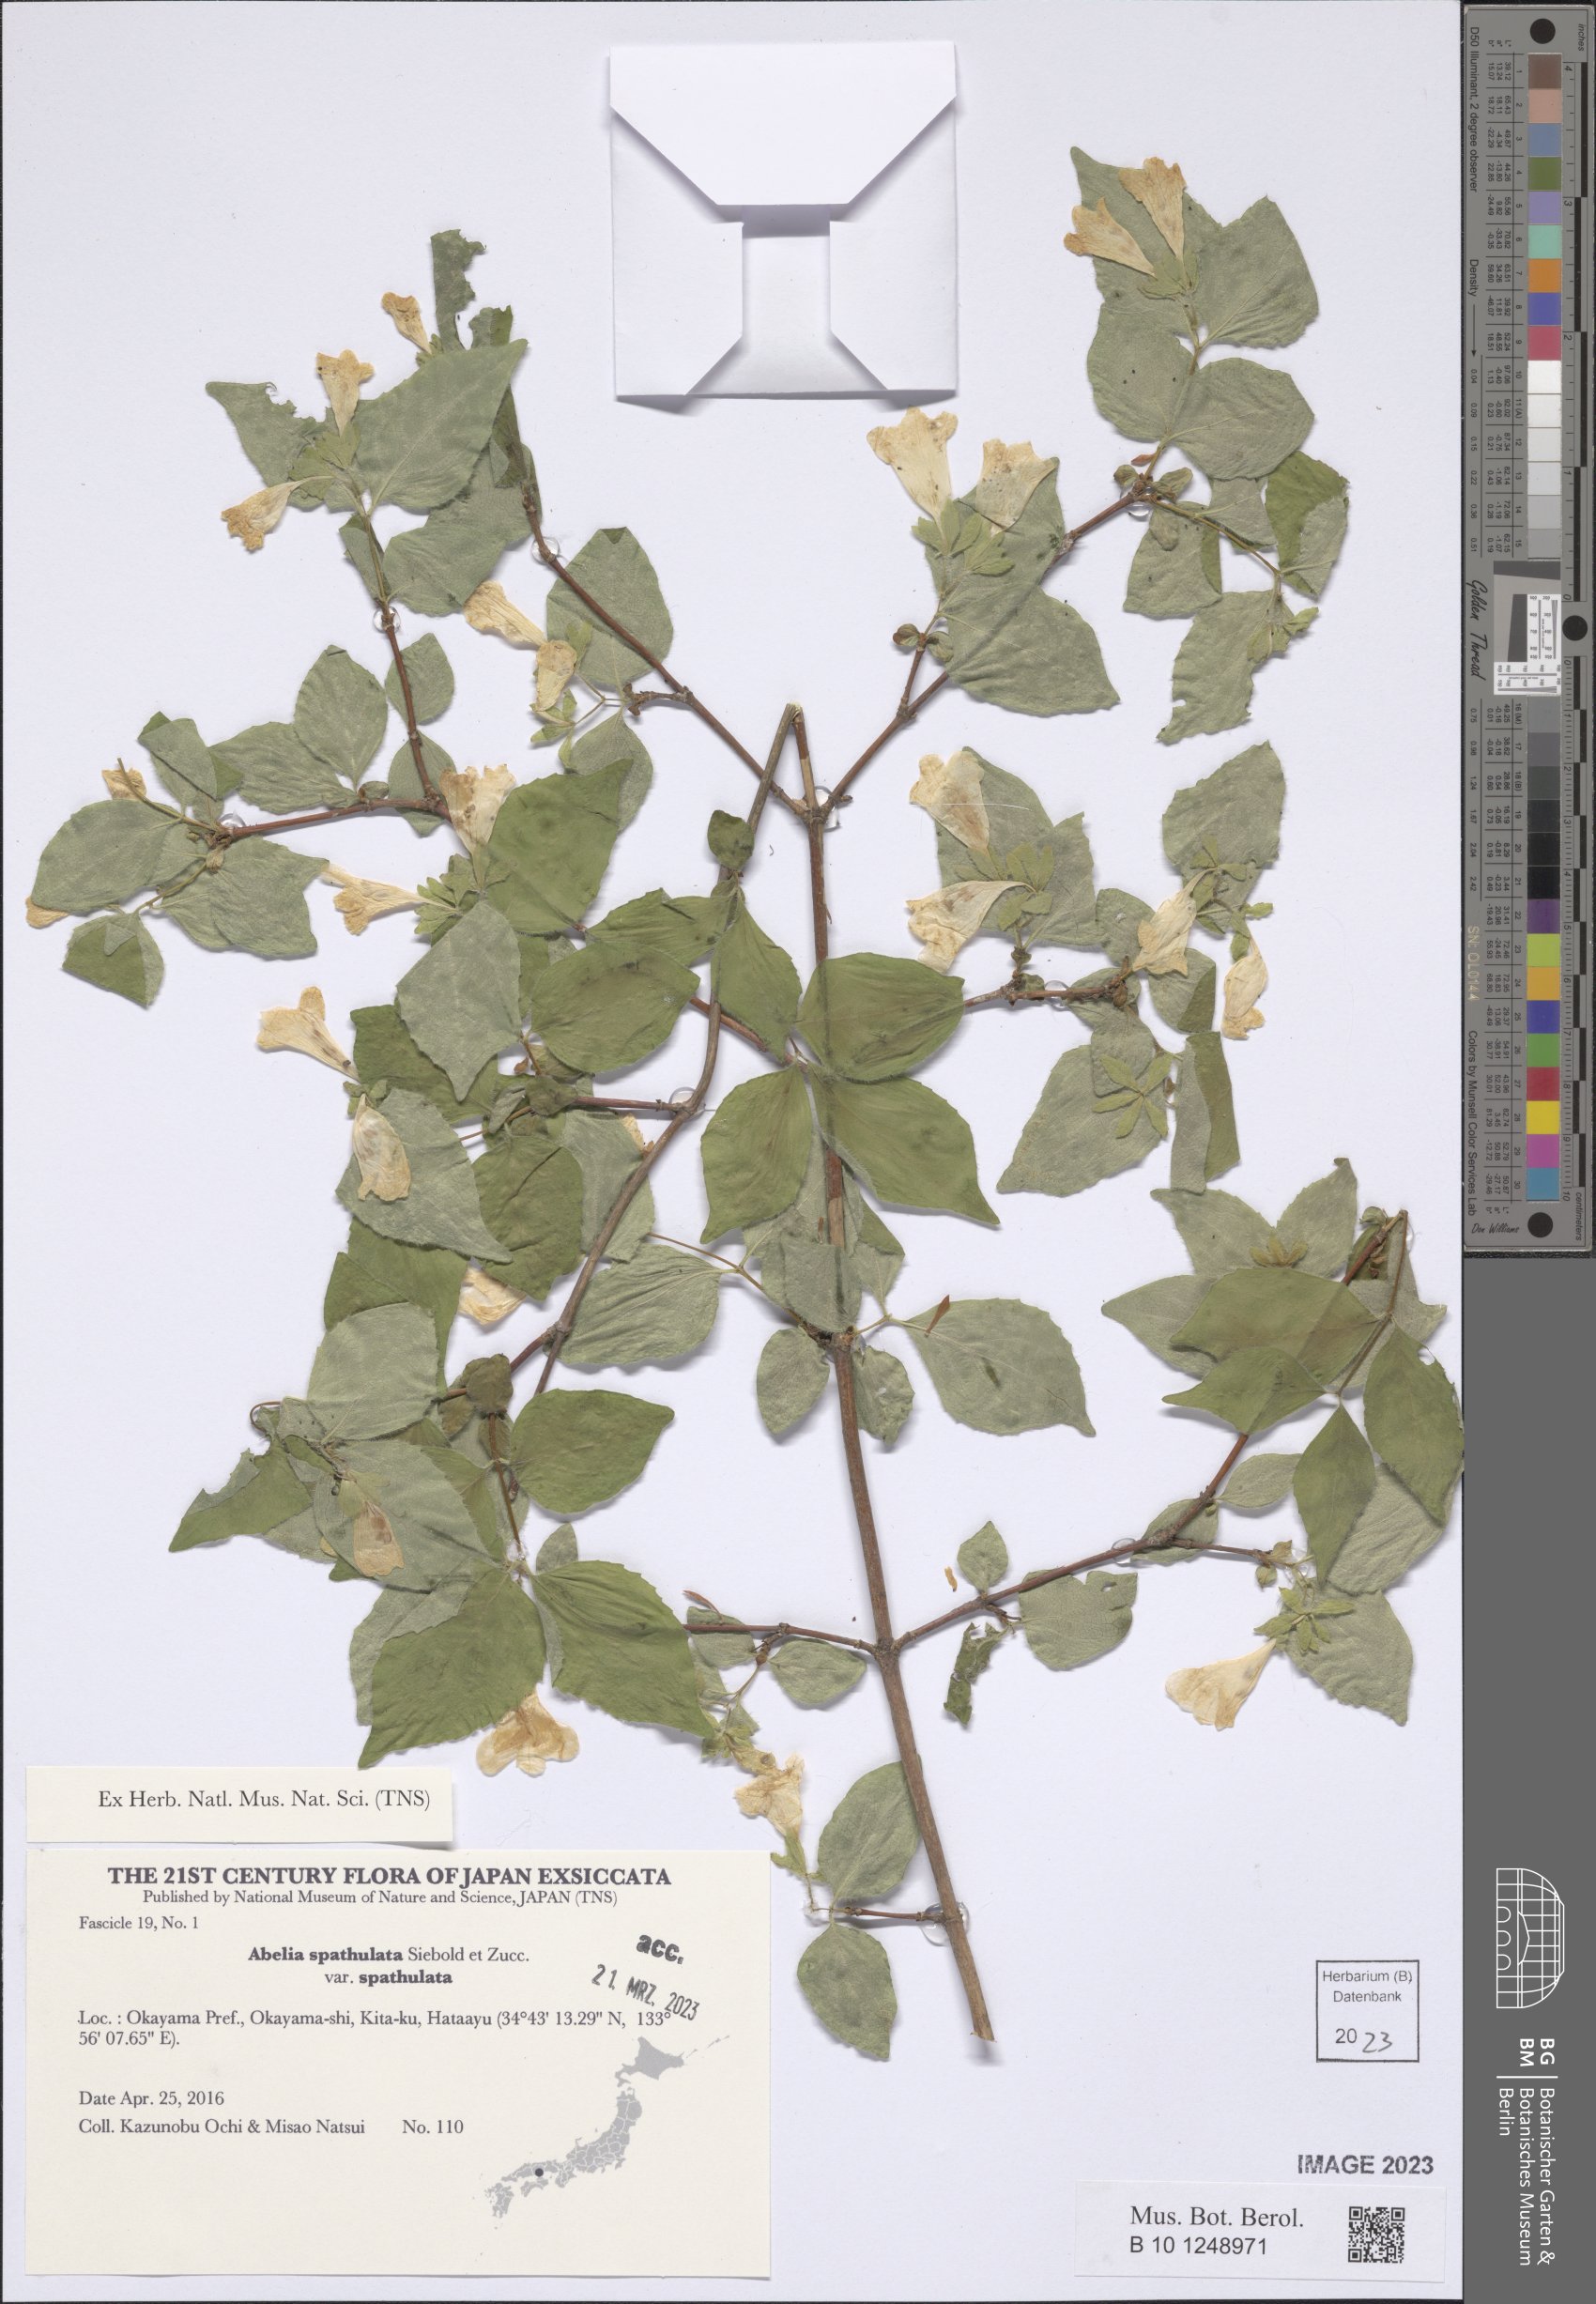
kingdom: Plantae
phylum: Tracheophyta
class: Magnoliopsida
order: Dipsacales
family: Caprifoliaceae
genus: Diabelia
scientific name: Diabelia spathulata
